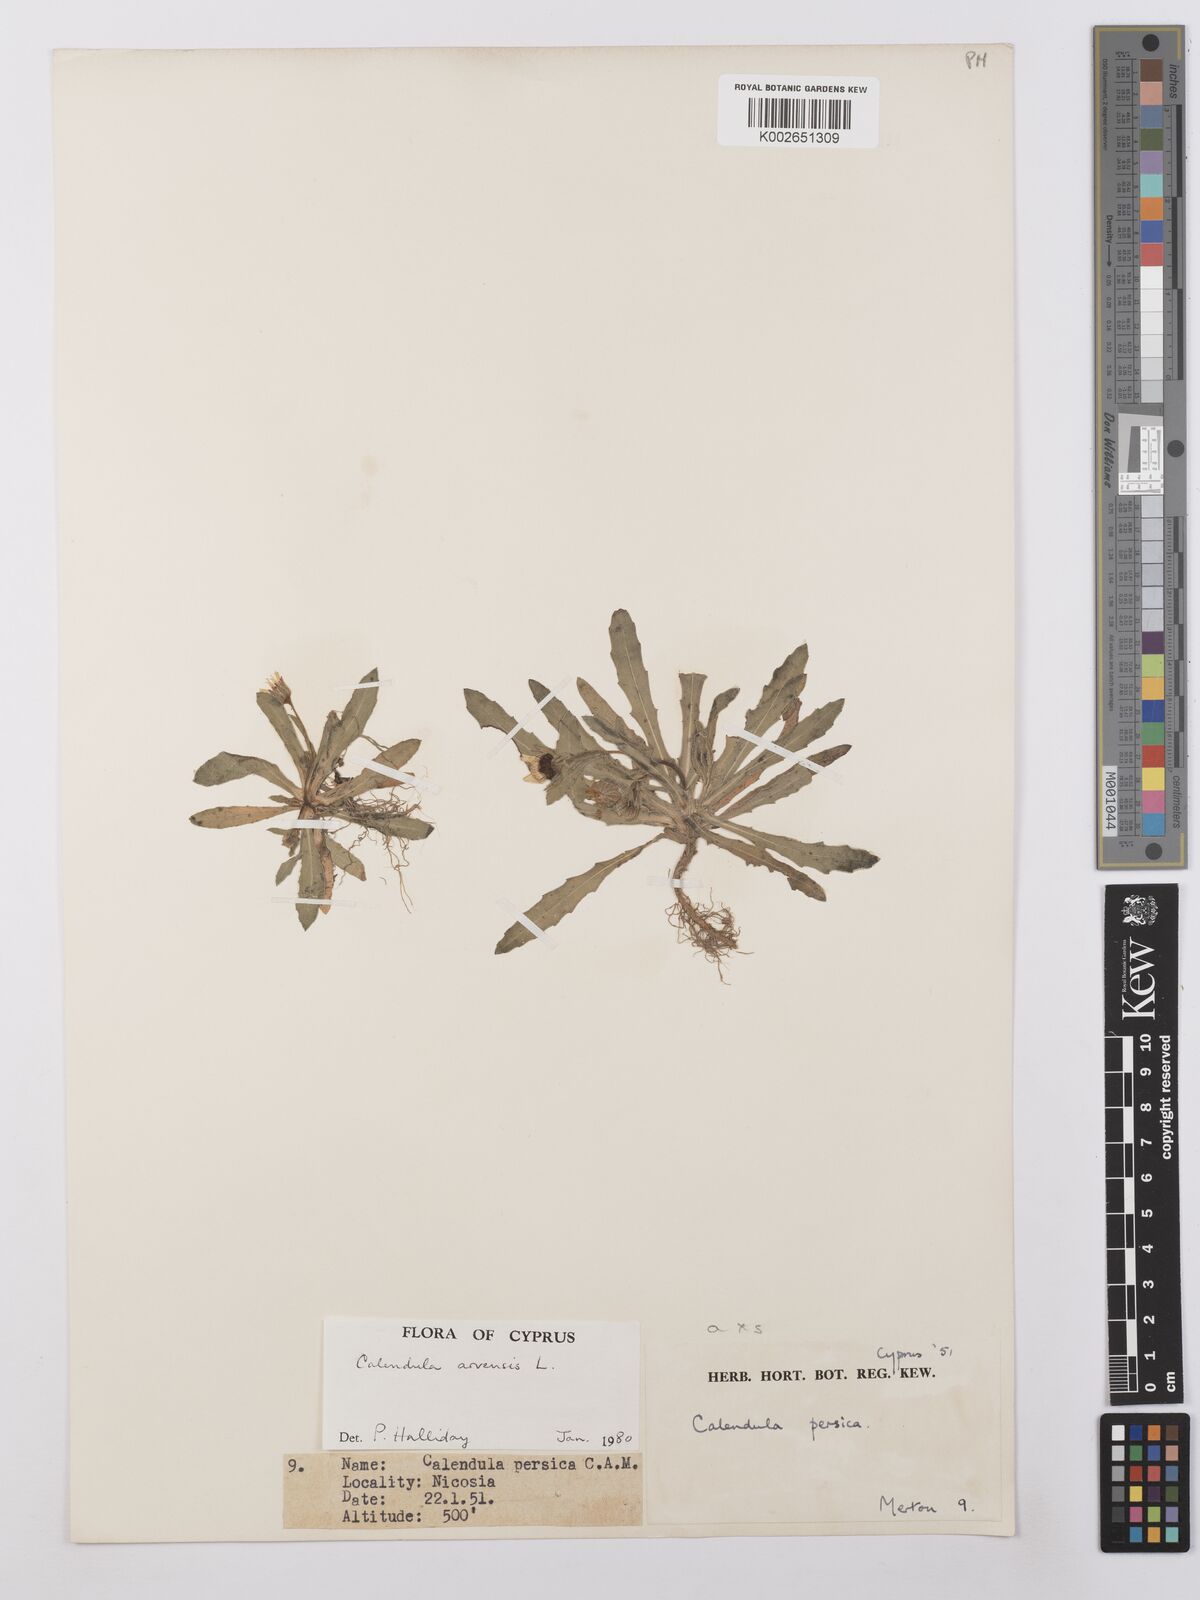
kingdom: Plantae
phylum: Tracheophyta
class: Magnoliopsida
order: Asterales
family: Asteraceae
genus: Calendula
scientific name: Calendula arvensis
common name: Field marigold
